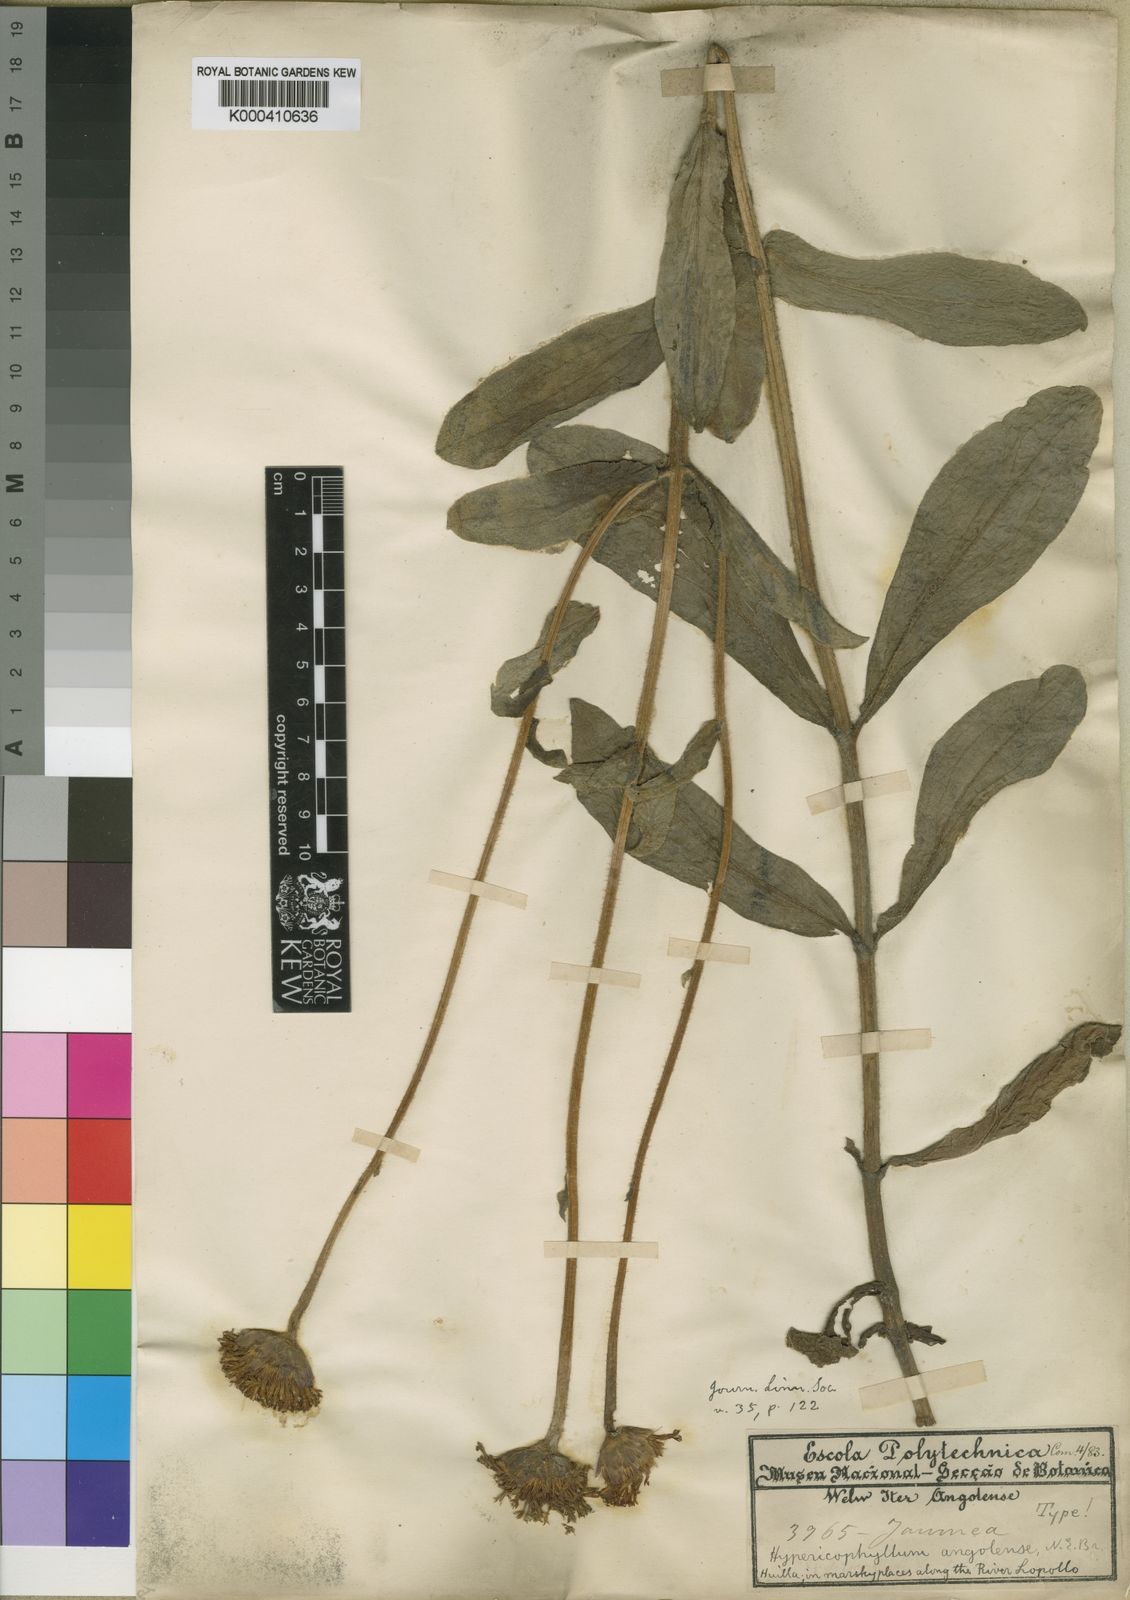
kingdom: Plantae
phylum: Tracheophyta
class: Magnoliopsida
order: Asterales
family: Asteraceae
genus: Hypericophyllum
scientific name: Hypericophyllum angolense
